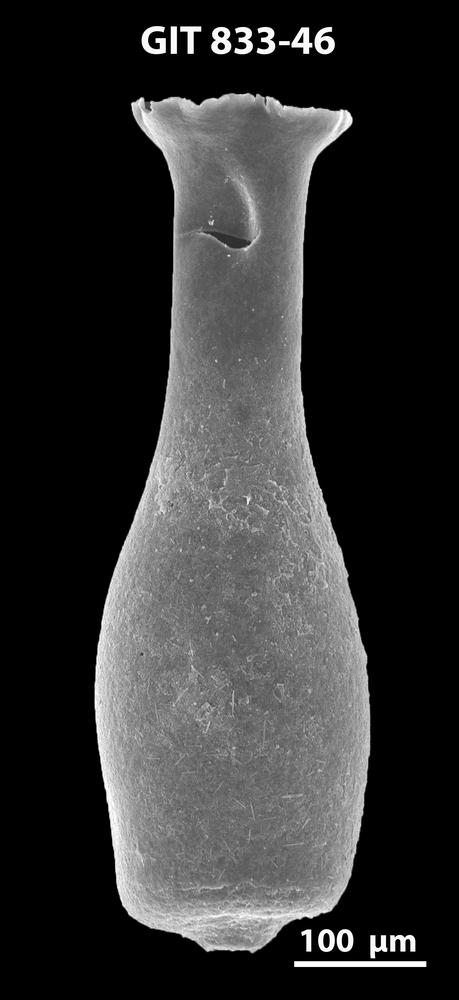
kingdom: Animalia
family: Lagenochitinidae
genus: Lagenochitina
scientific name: Lagenochitina megaesthonica
